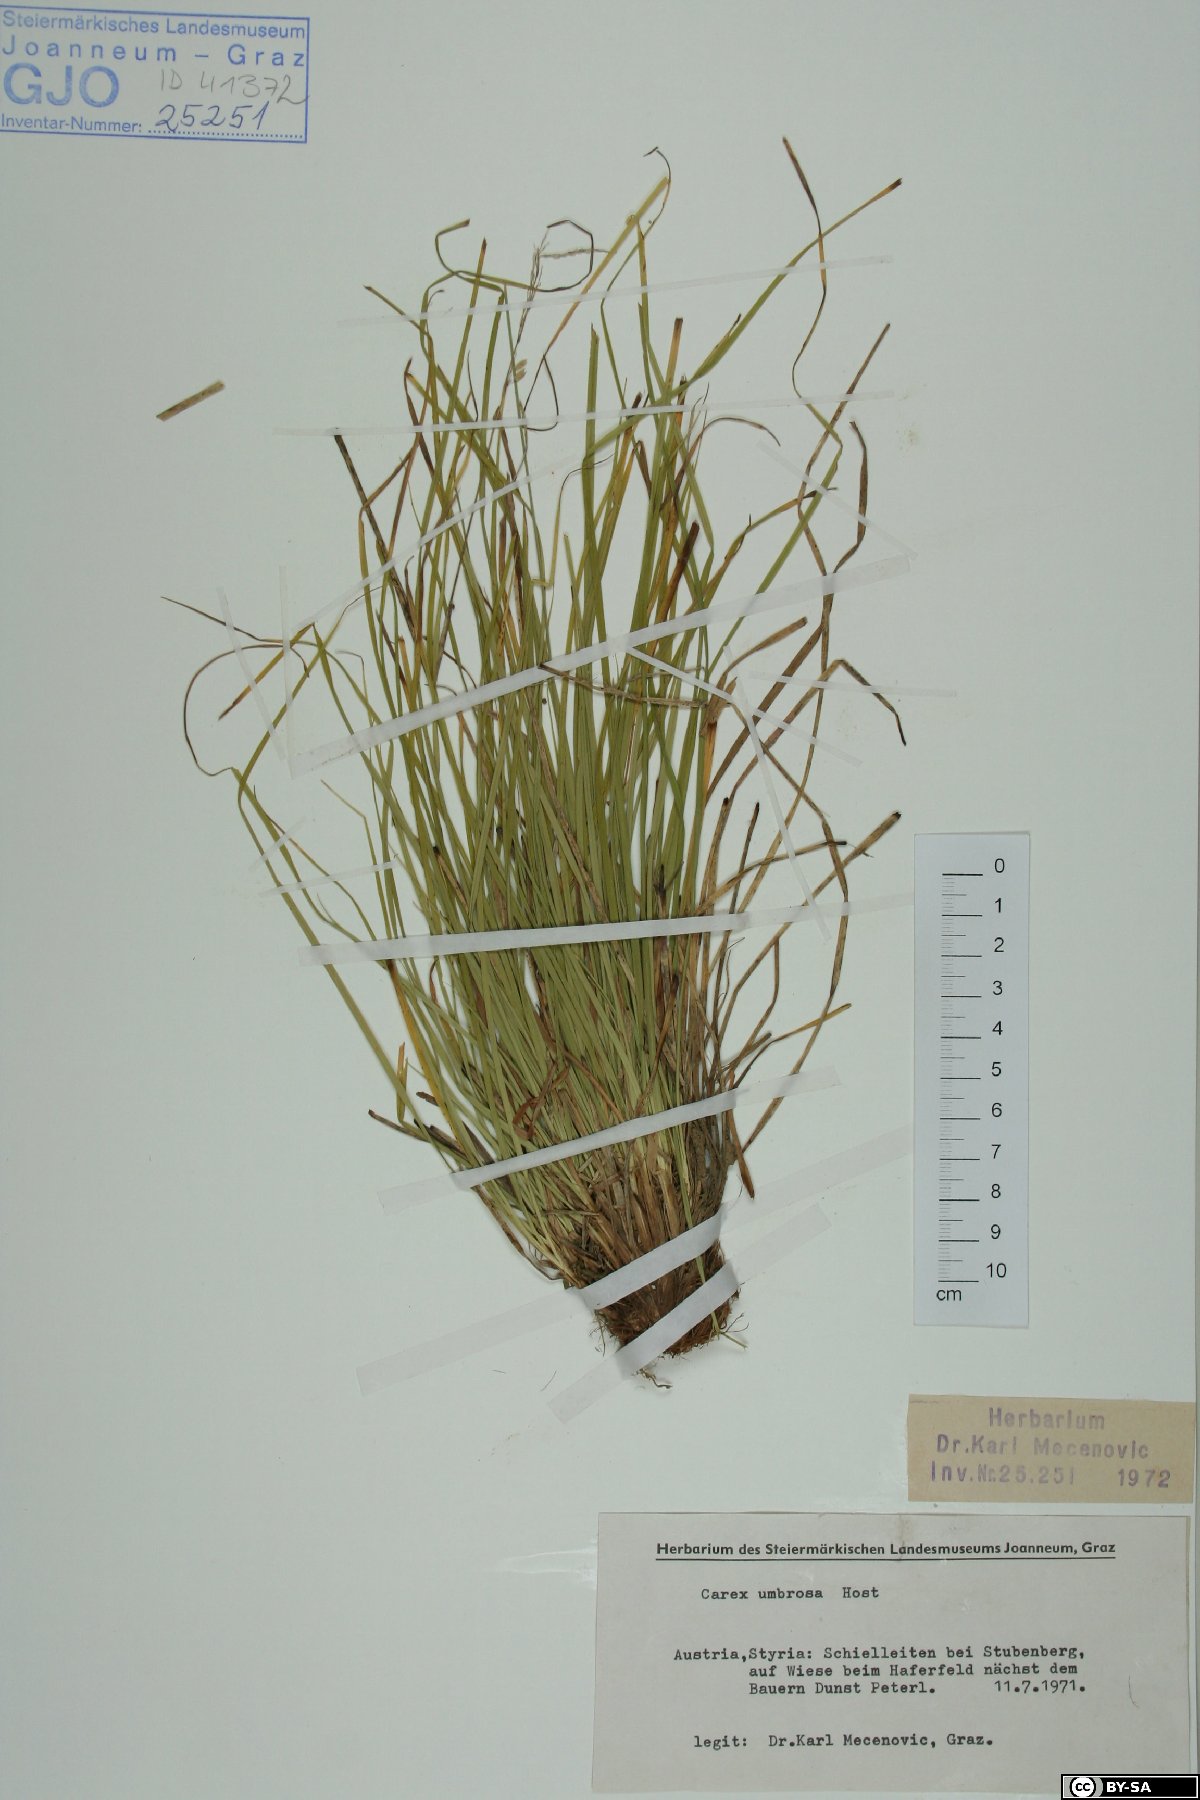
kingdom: Plantae
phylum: Tracheophyta
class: Liliopsida
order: Poales
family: Cyperaceae
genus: Carex
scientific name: Carex umbrosa
